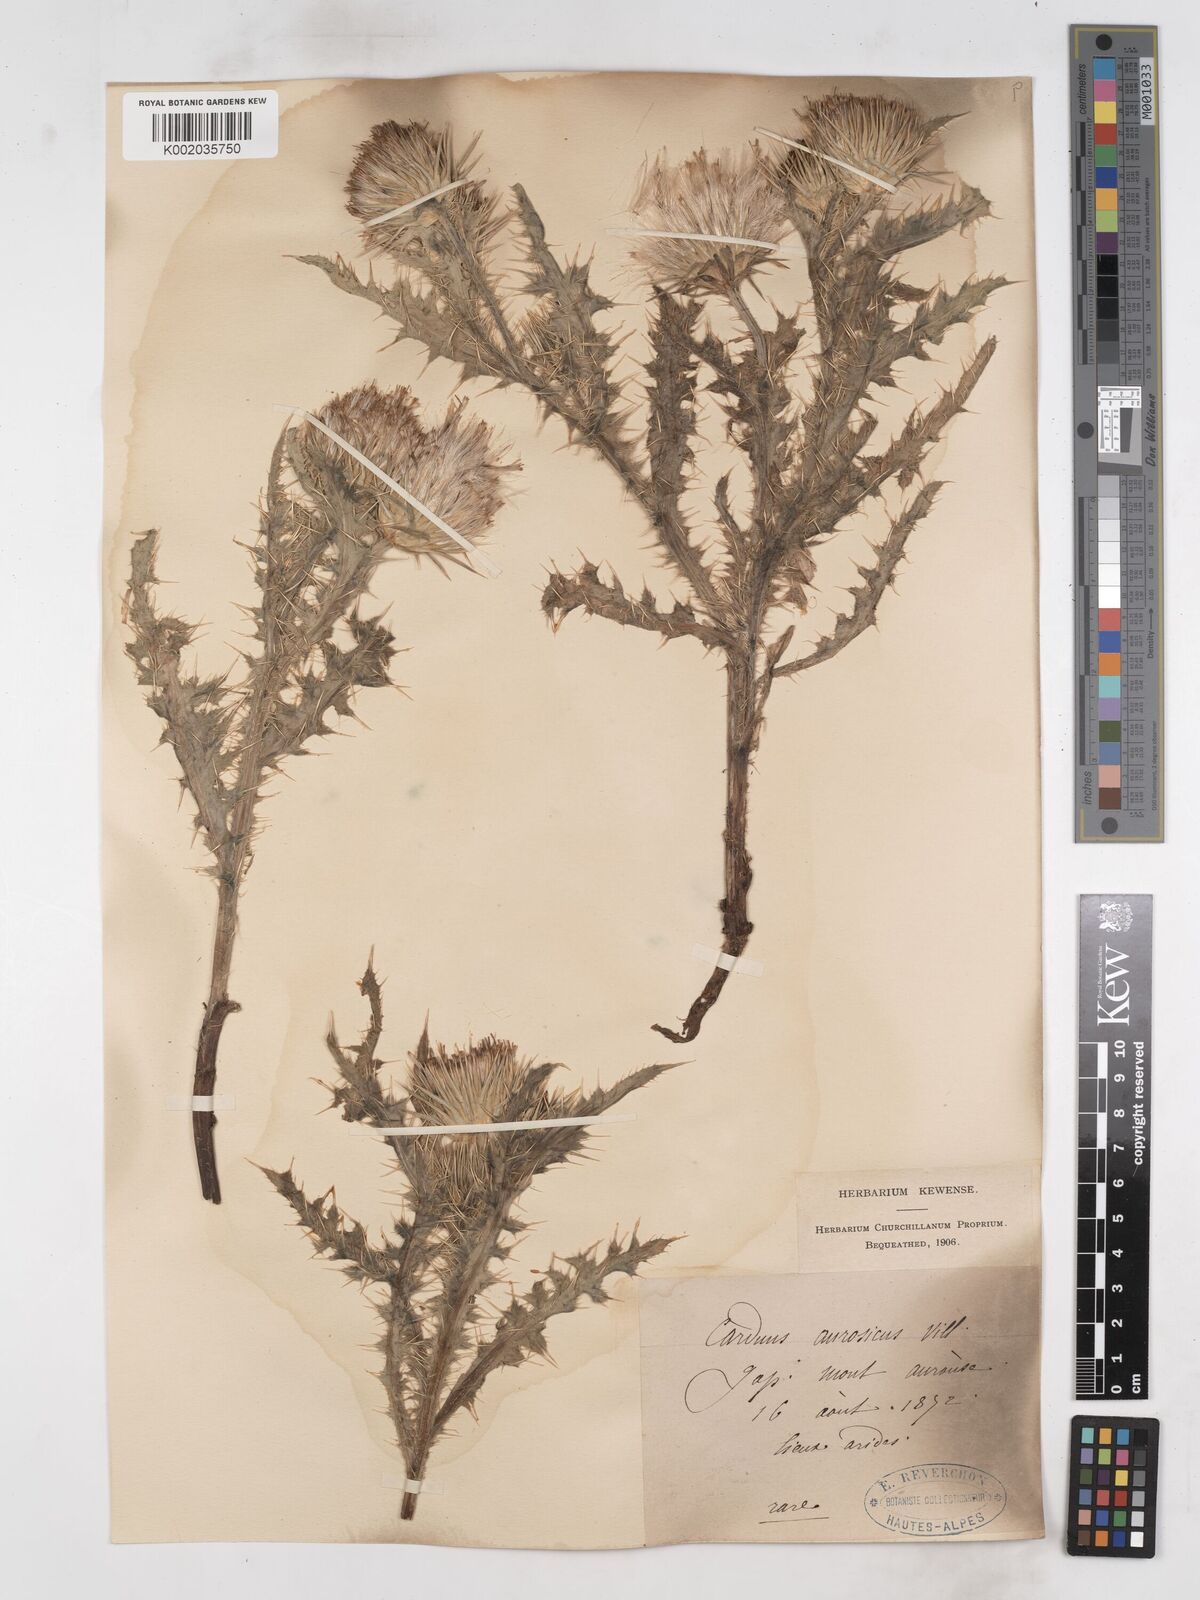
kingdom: Plantae
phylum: Tracheophyta
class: Magnoliopsida
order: Asterales
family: Asteraceae
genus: Carduus
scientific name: Carduus aurosicus
